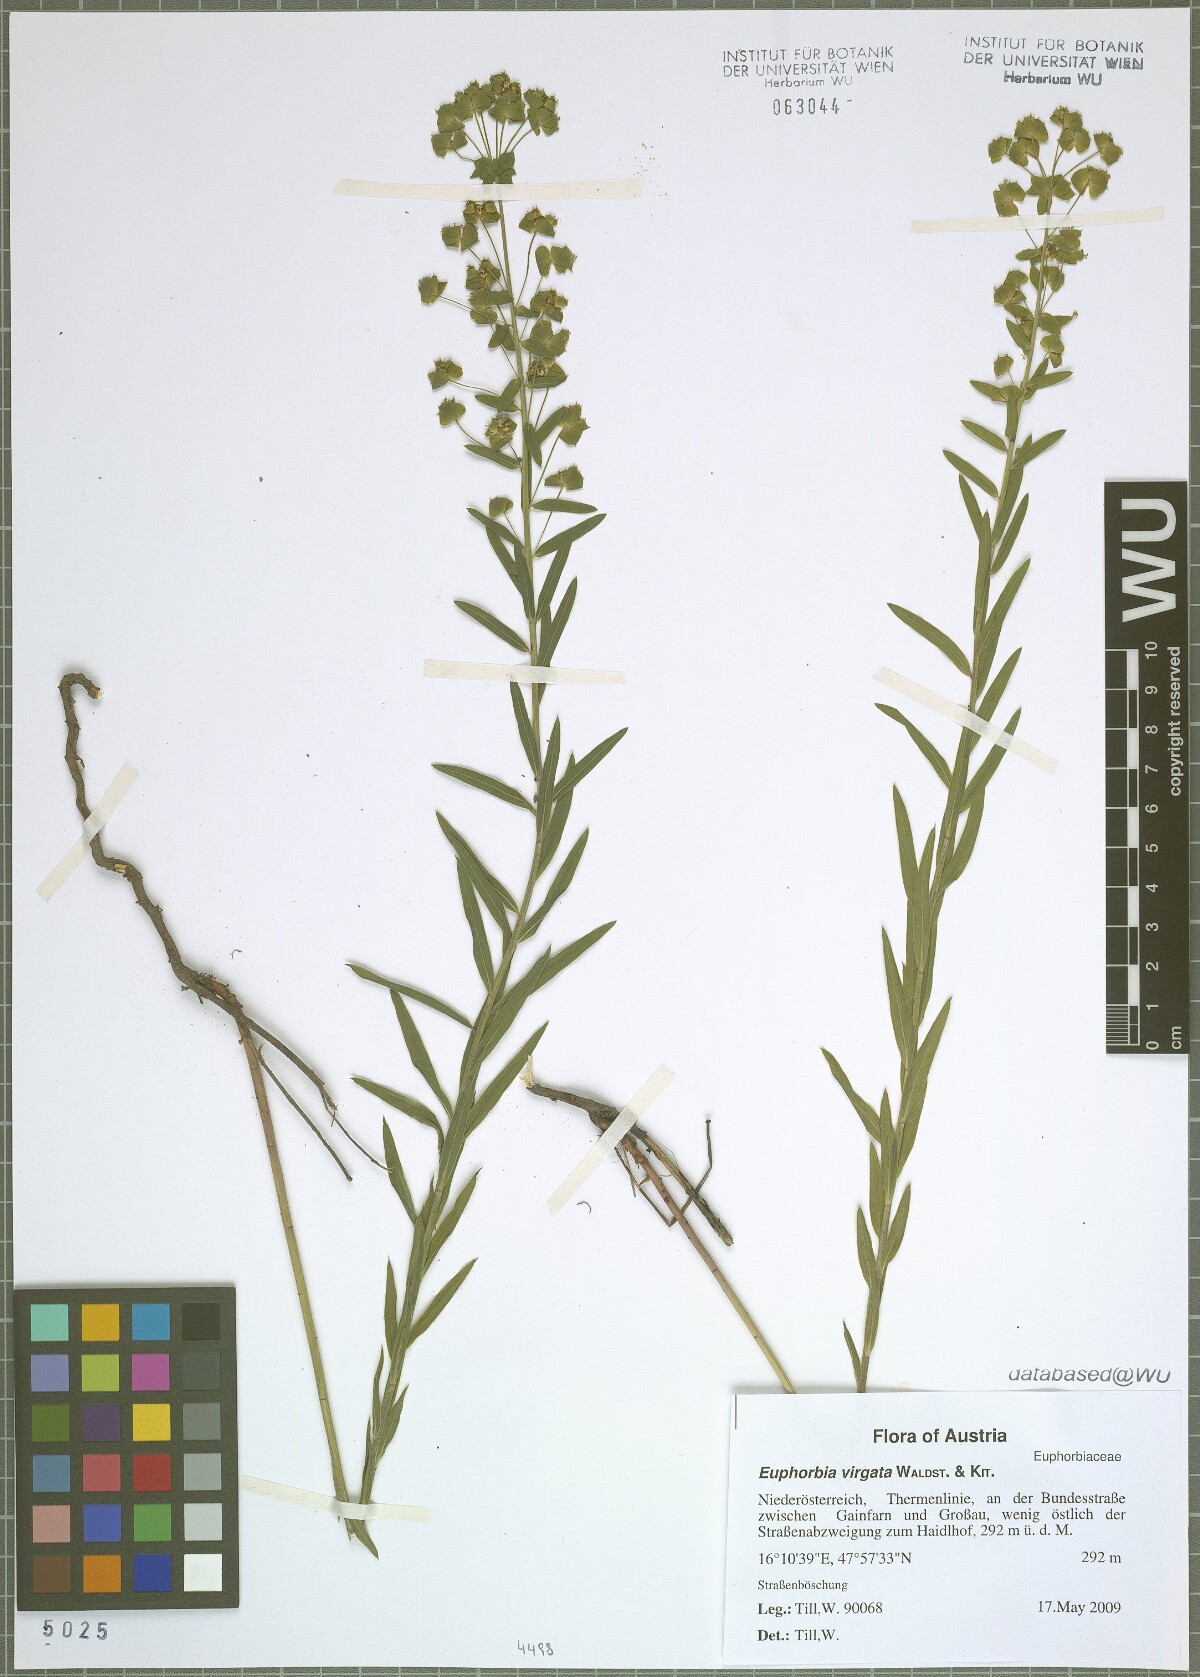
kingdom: Plantae
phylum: Tracheophyta
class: Magnoliopsida
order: Malpighiales
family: Euphorbiaceae
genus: Euphorbia
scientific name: Euphorbia virgata
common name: Leafy spurge
